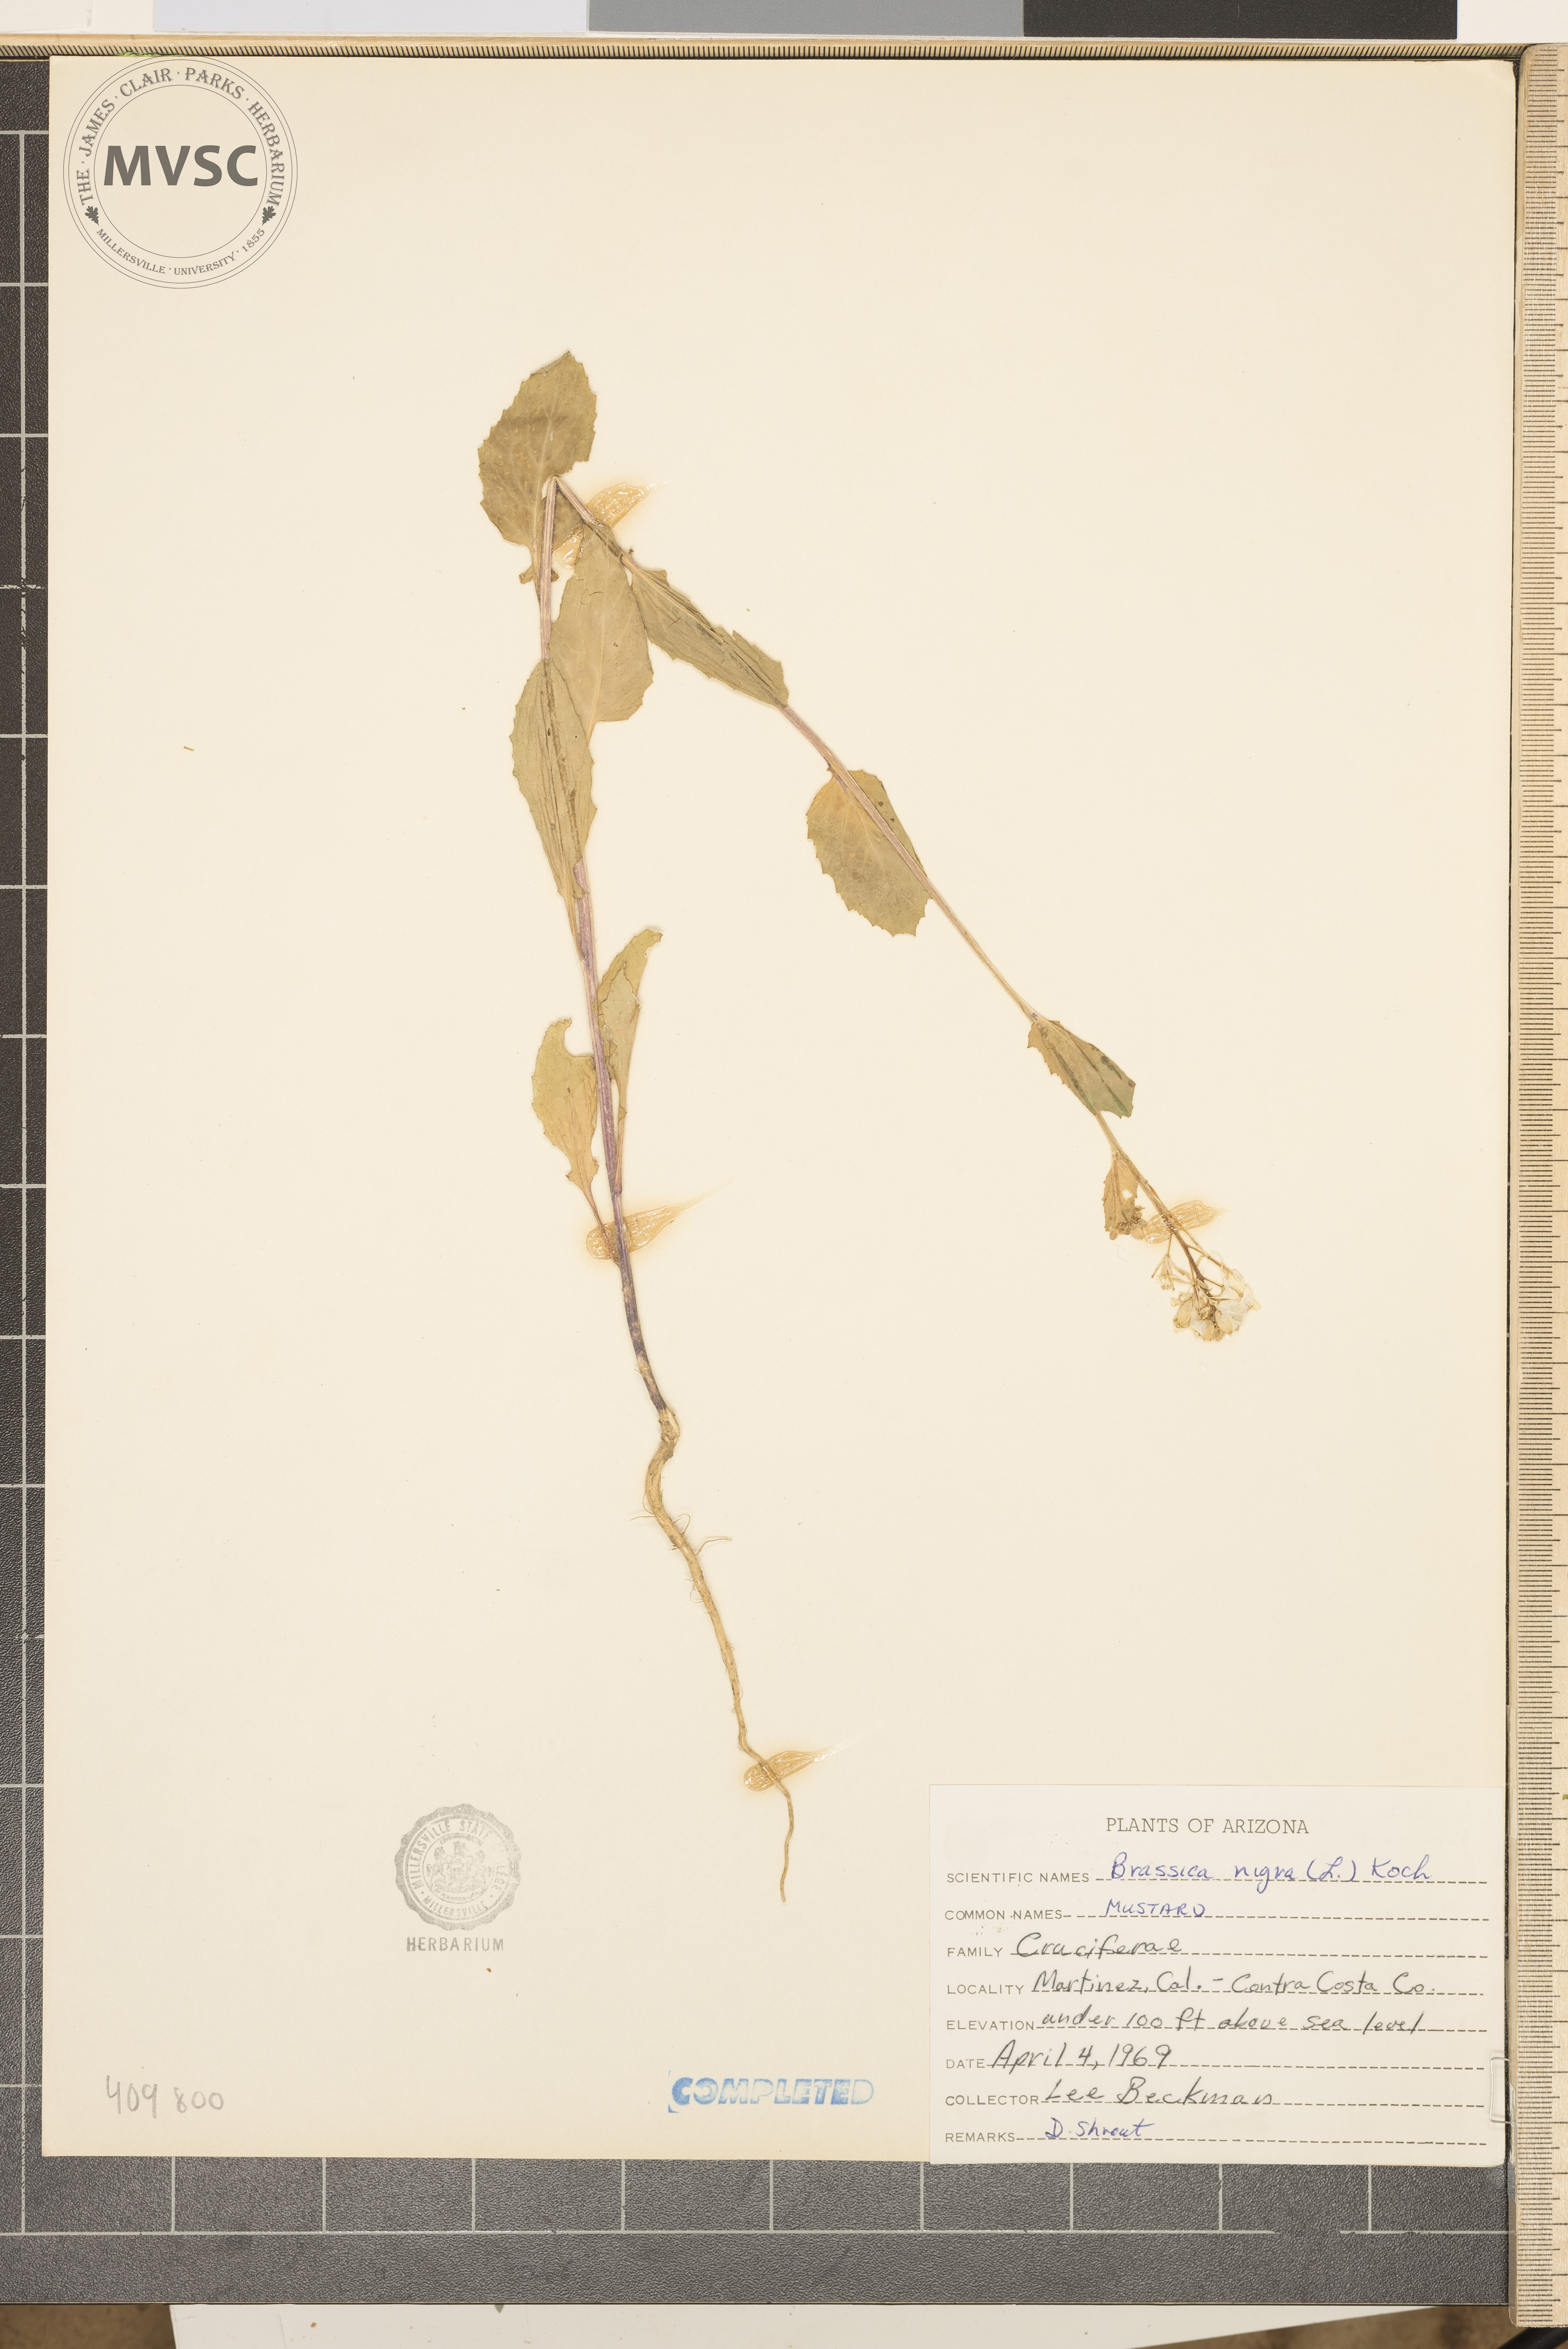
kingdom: Plantae
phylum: Tracheophyta
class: Magnoliopsida
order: Brassicales
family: Brassicaceae
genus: Brassica
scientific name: Brassica nigra
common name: black mustard
